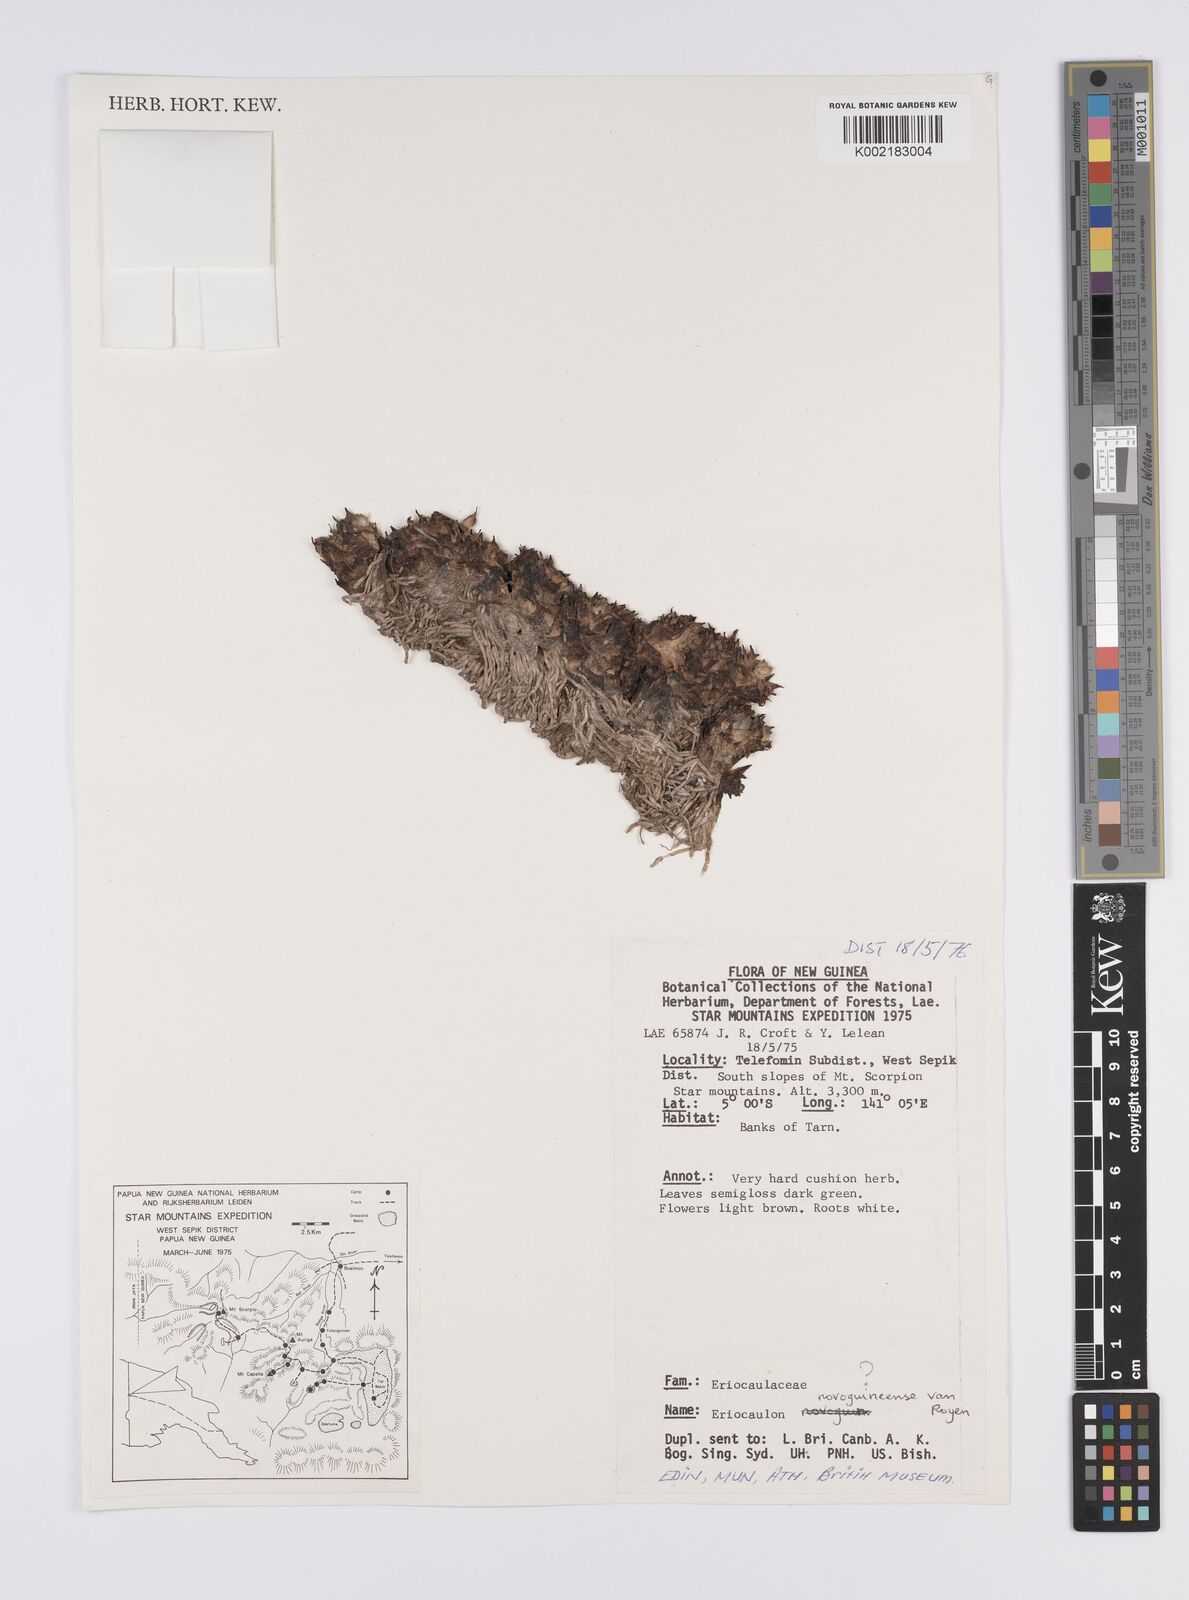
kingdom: Plantae
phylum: Tracheophyta
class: Liliopsida
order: Poales
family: Eriocaulaceae
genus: Eriocaulon
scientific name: Eriocaulon novoguineense
